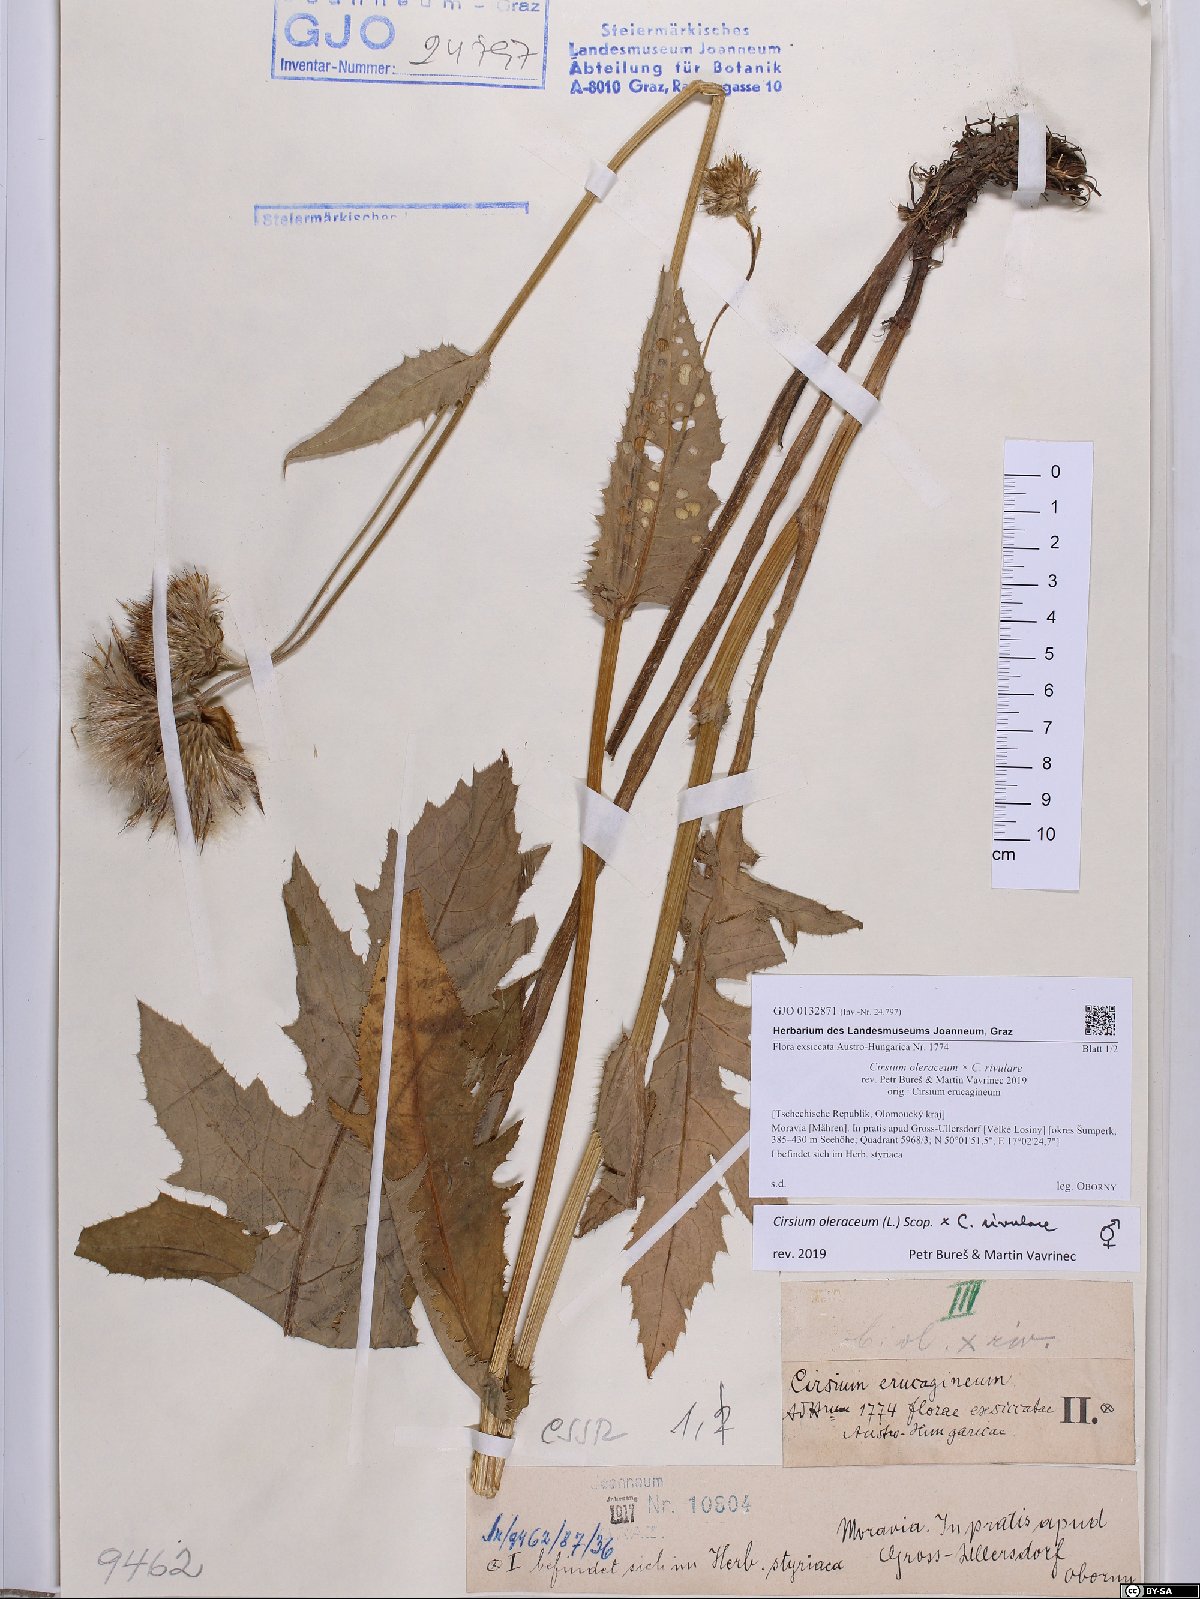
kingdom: Plantae
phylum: Tracheophyta
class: Magnoliopsida
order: Asterales
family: Asteraceae
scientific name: Asteraceae
